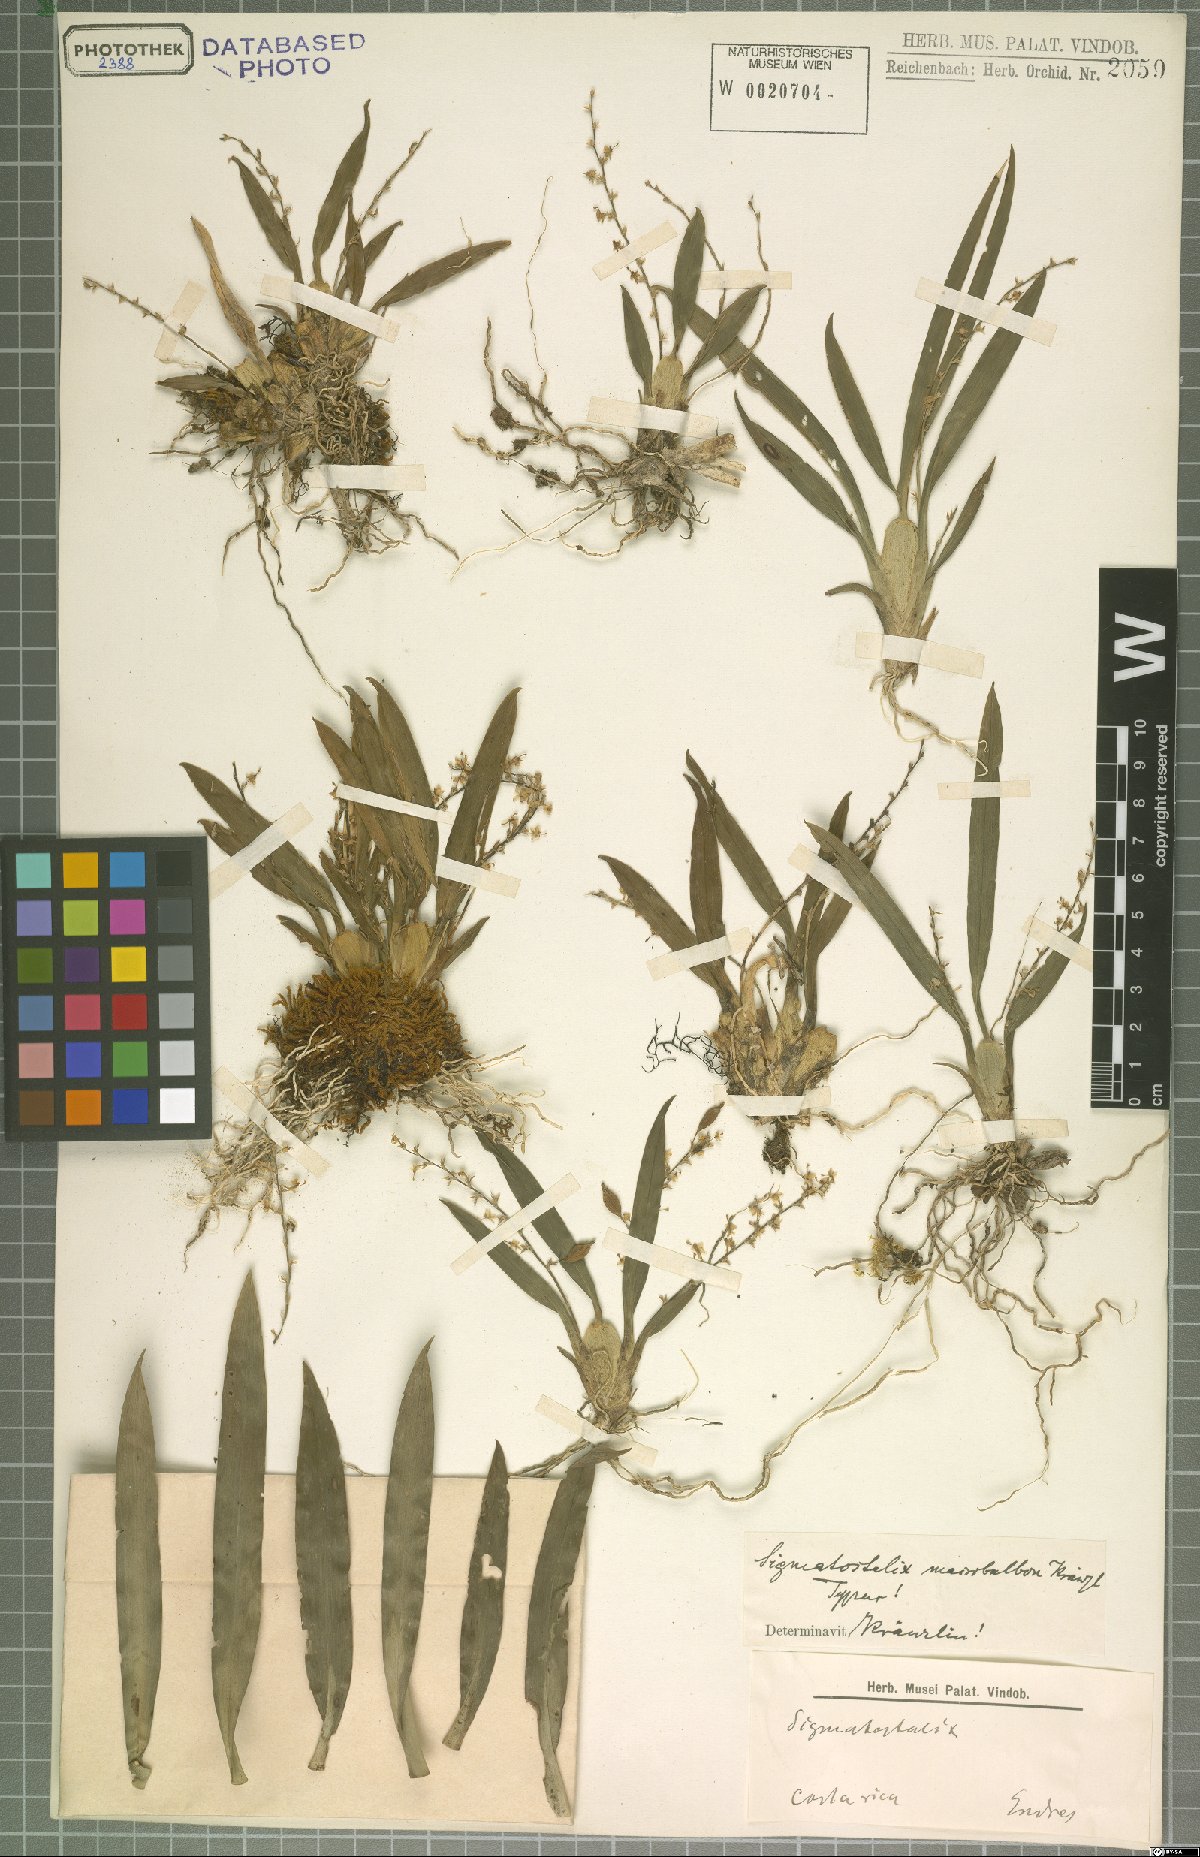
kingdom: Plantae
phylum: Tracheophyta
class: Liliopsida
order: Asparagales
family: Orchidaceae
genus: Oncidium
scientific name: Oncidium macrobulbon
